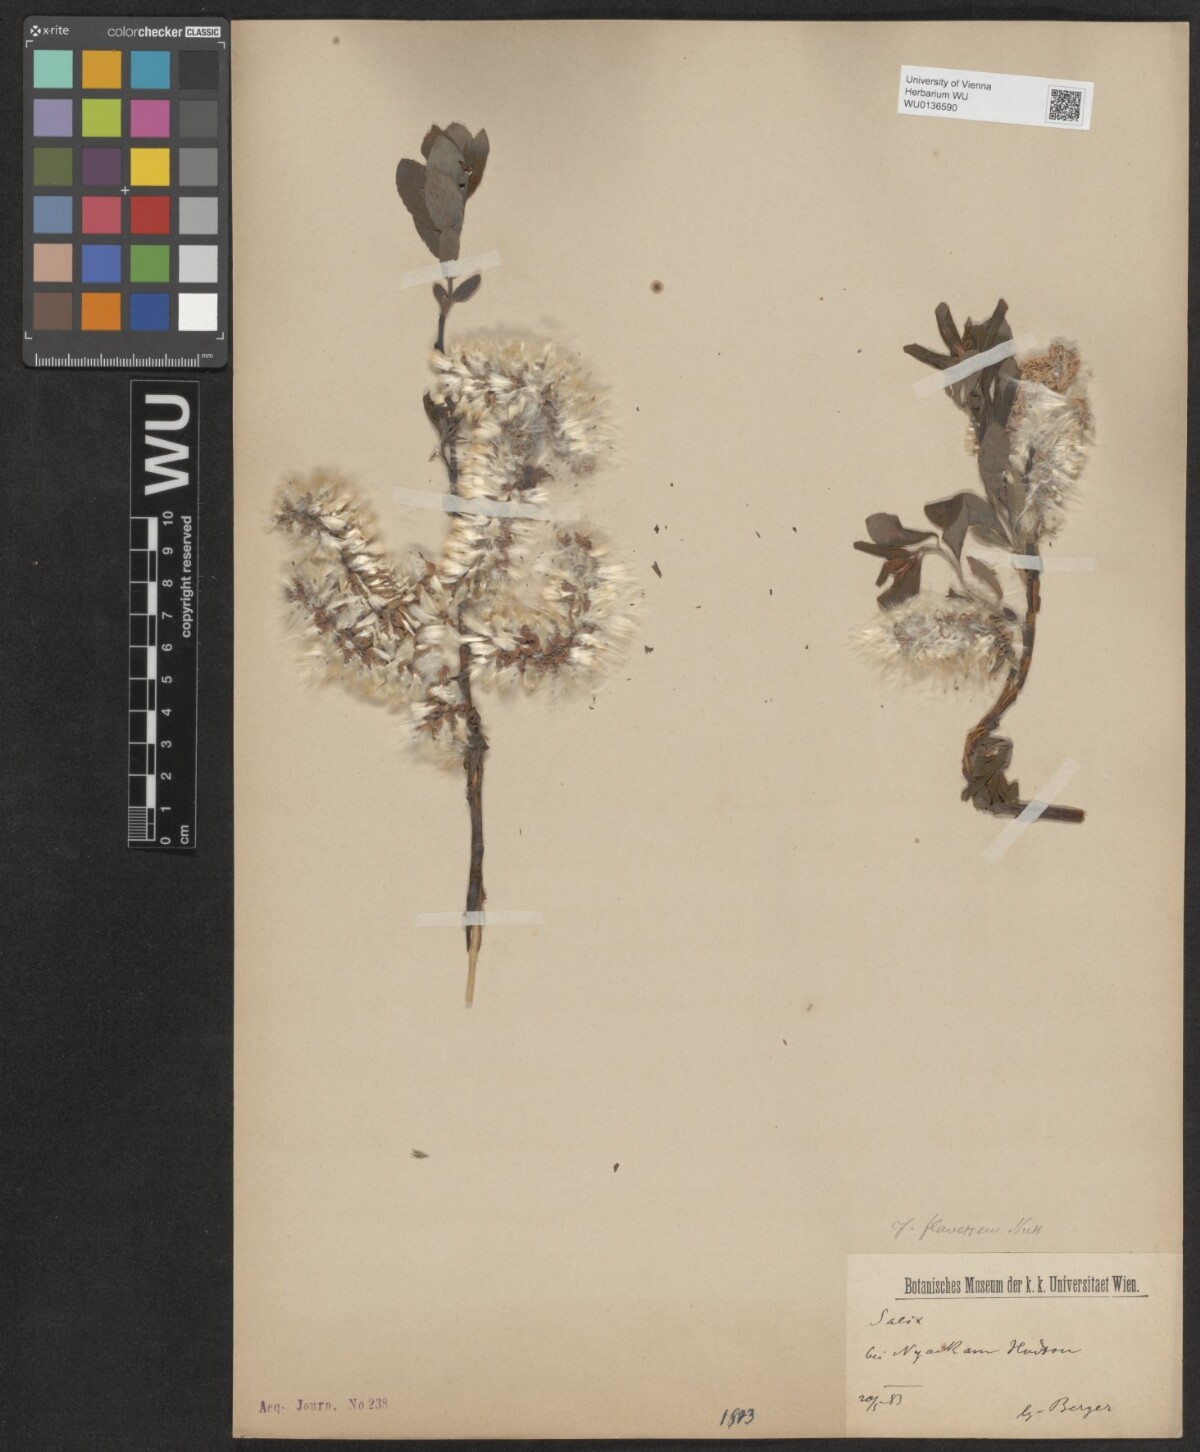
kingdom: Plantae
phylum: Tracheophyta
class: Magnoliopsida
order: Malpighiales
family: Salicaceae
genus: Salix
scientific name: Salix foetida
